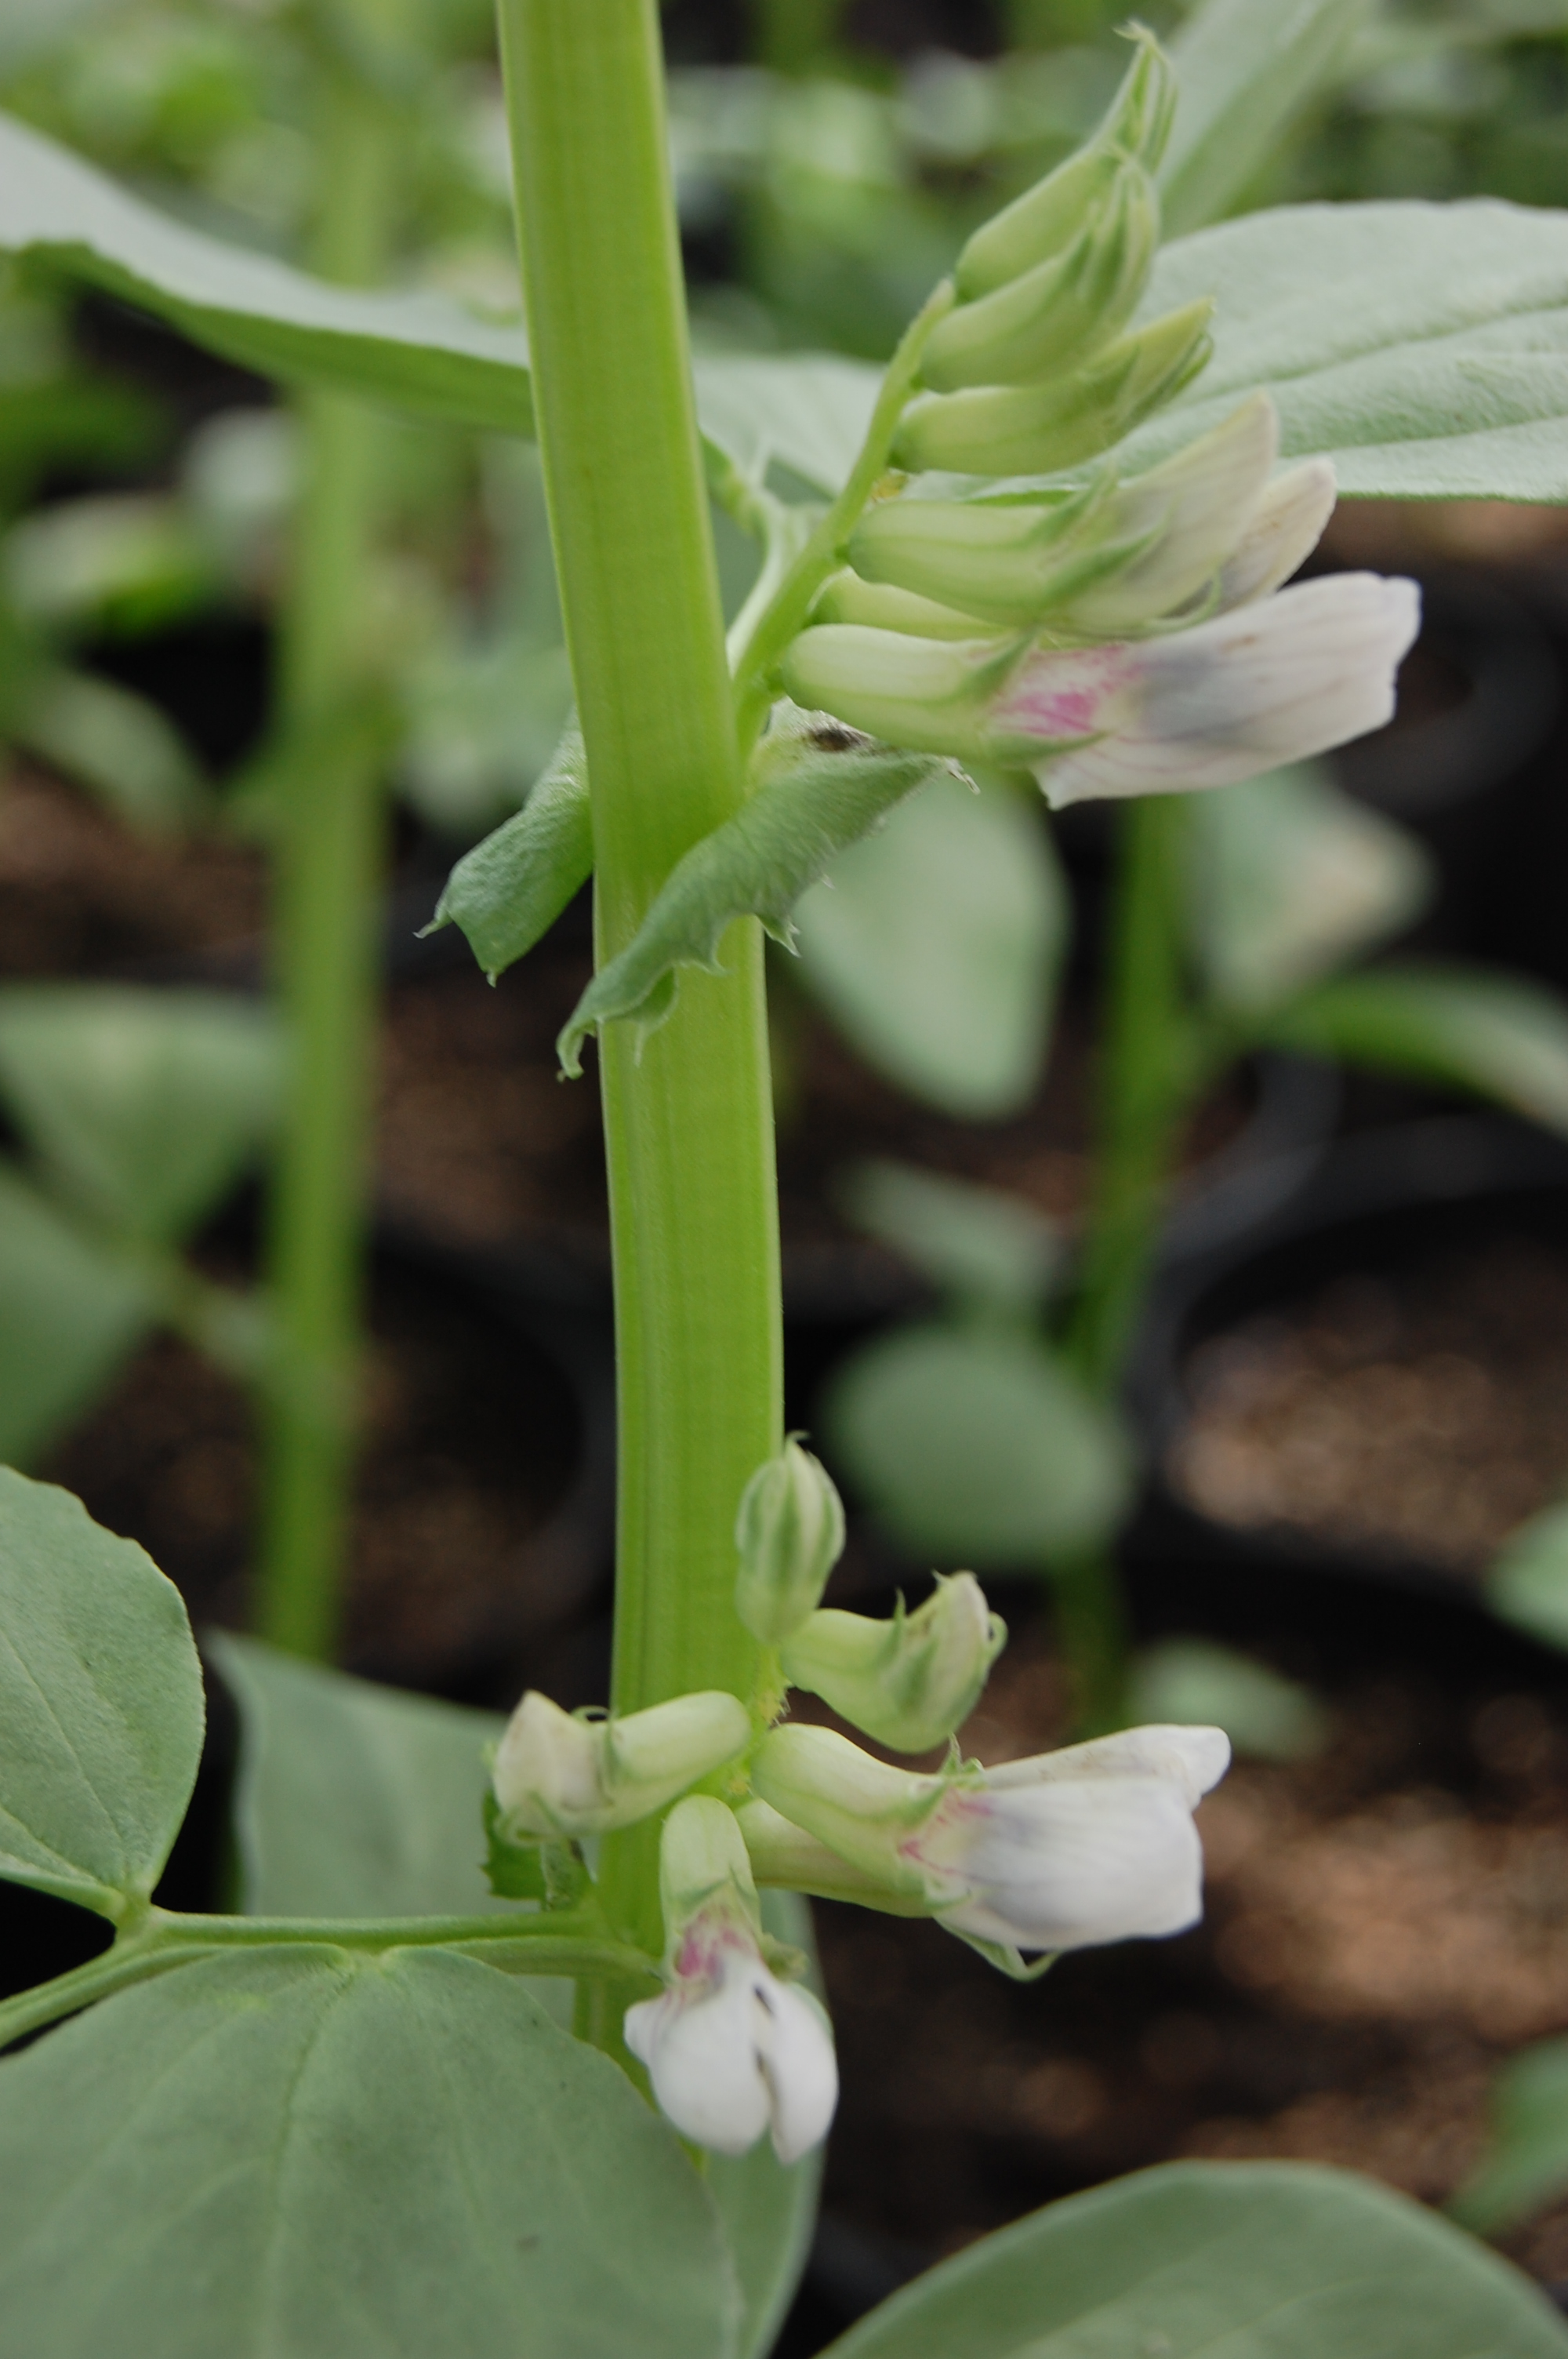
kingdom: Plantae
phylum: Tracheophyta
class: Magnoliopsida
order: Fabales
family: Fabaceae
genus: Vicia
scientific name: Vicia faba
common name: Broad bean
